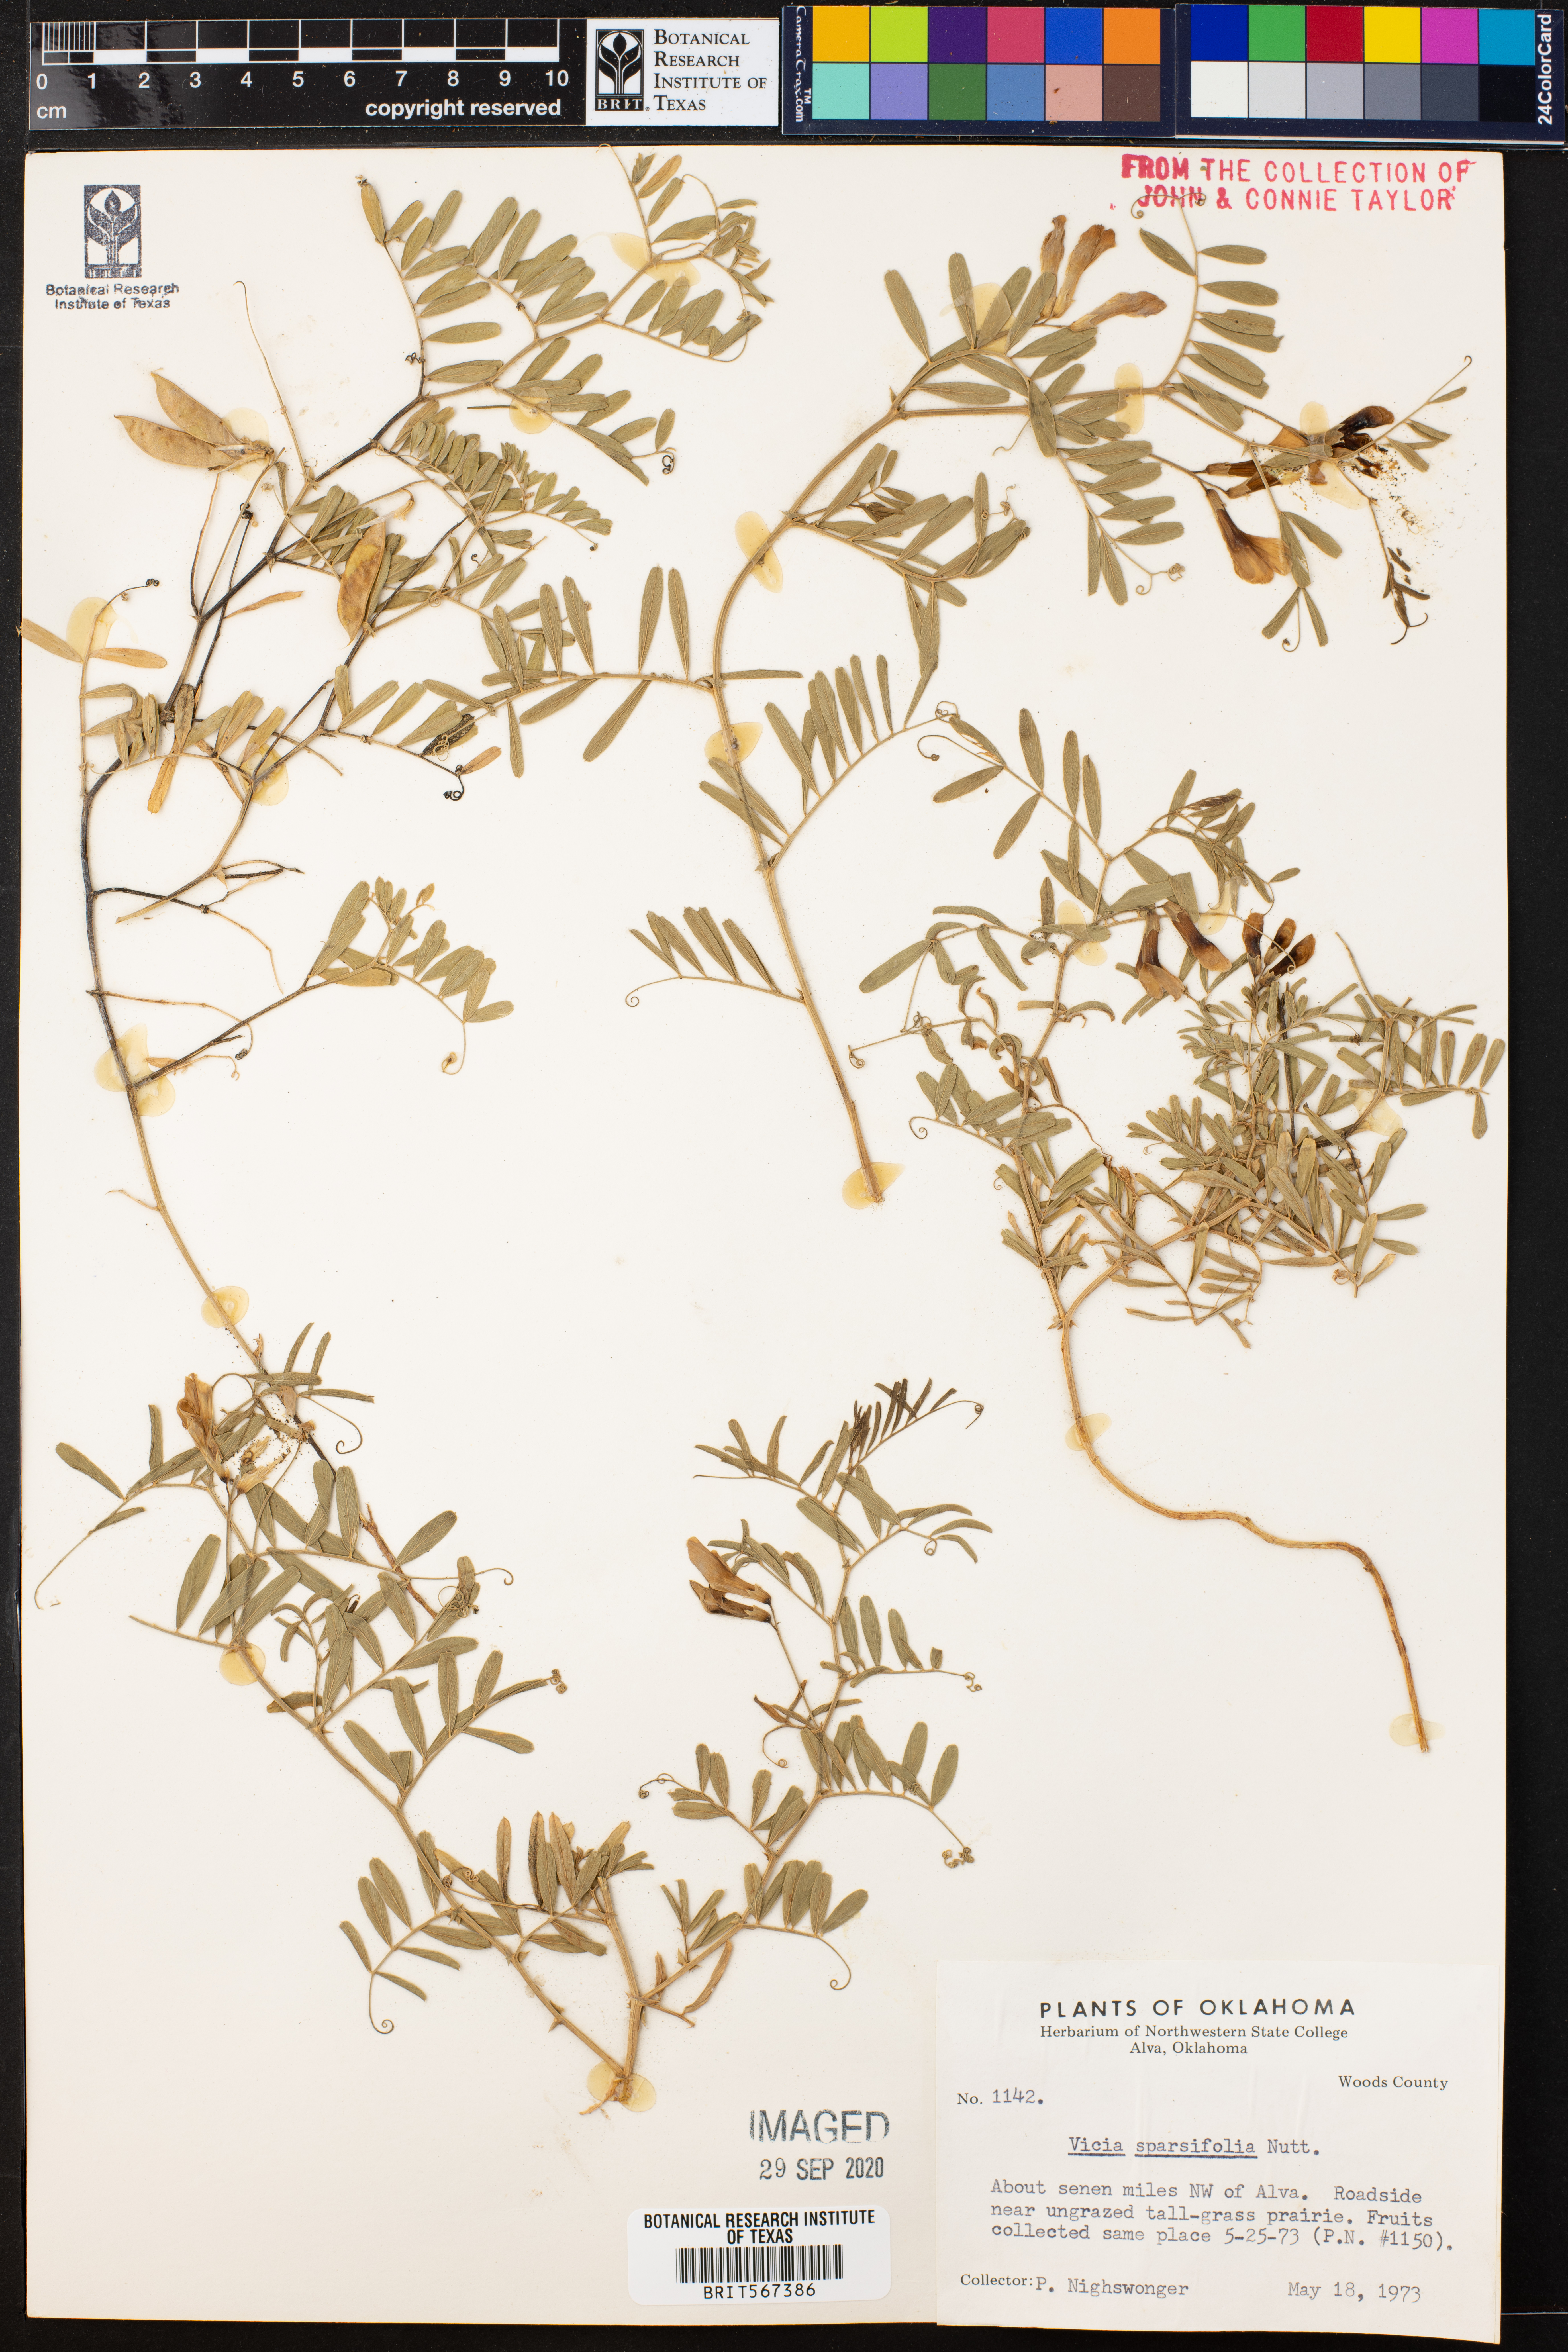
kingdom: Plantae
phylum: Tracheophyta
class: Magnoliopsida
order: Fabales
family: Fabaceae
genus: Vicia
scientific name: Vicia americana
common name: American vetch
